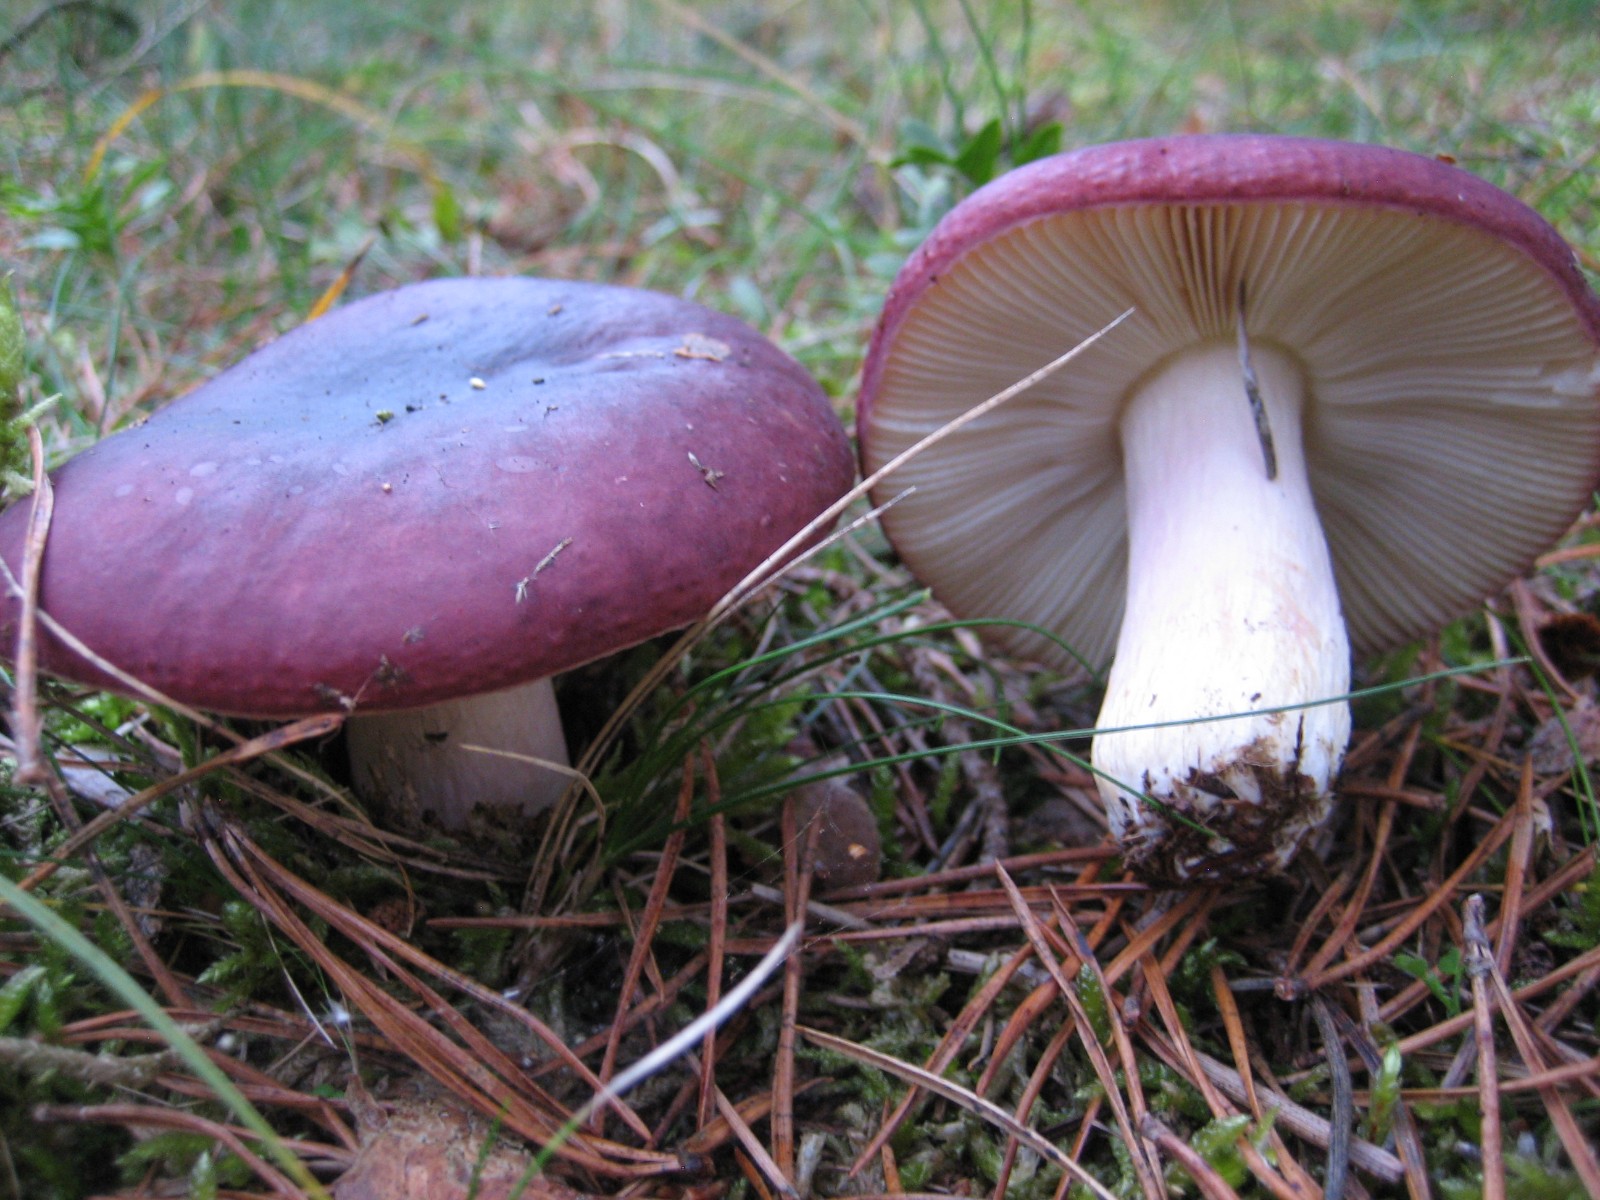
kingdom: Fungi
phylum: Basidiomycota
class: Agaricomycetes
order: Russulales
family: Russulaceae
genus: Russula
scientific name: Russula xerampelina
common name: hummer-skørhat
